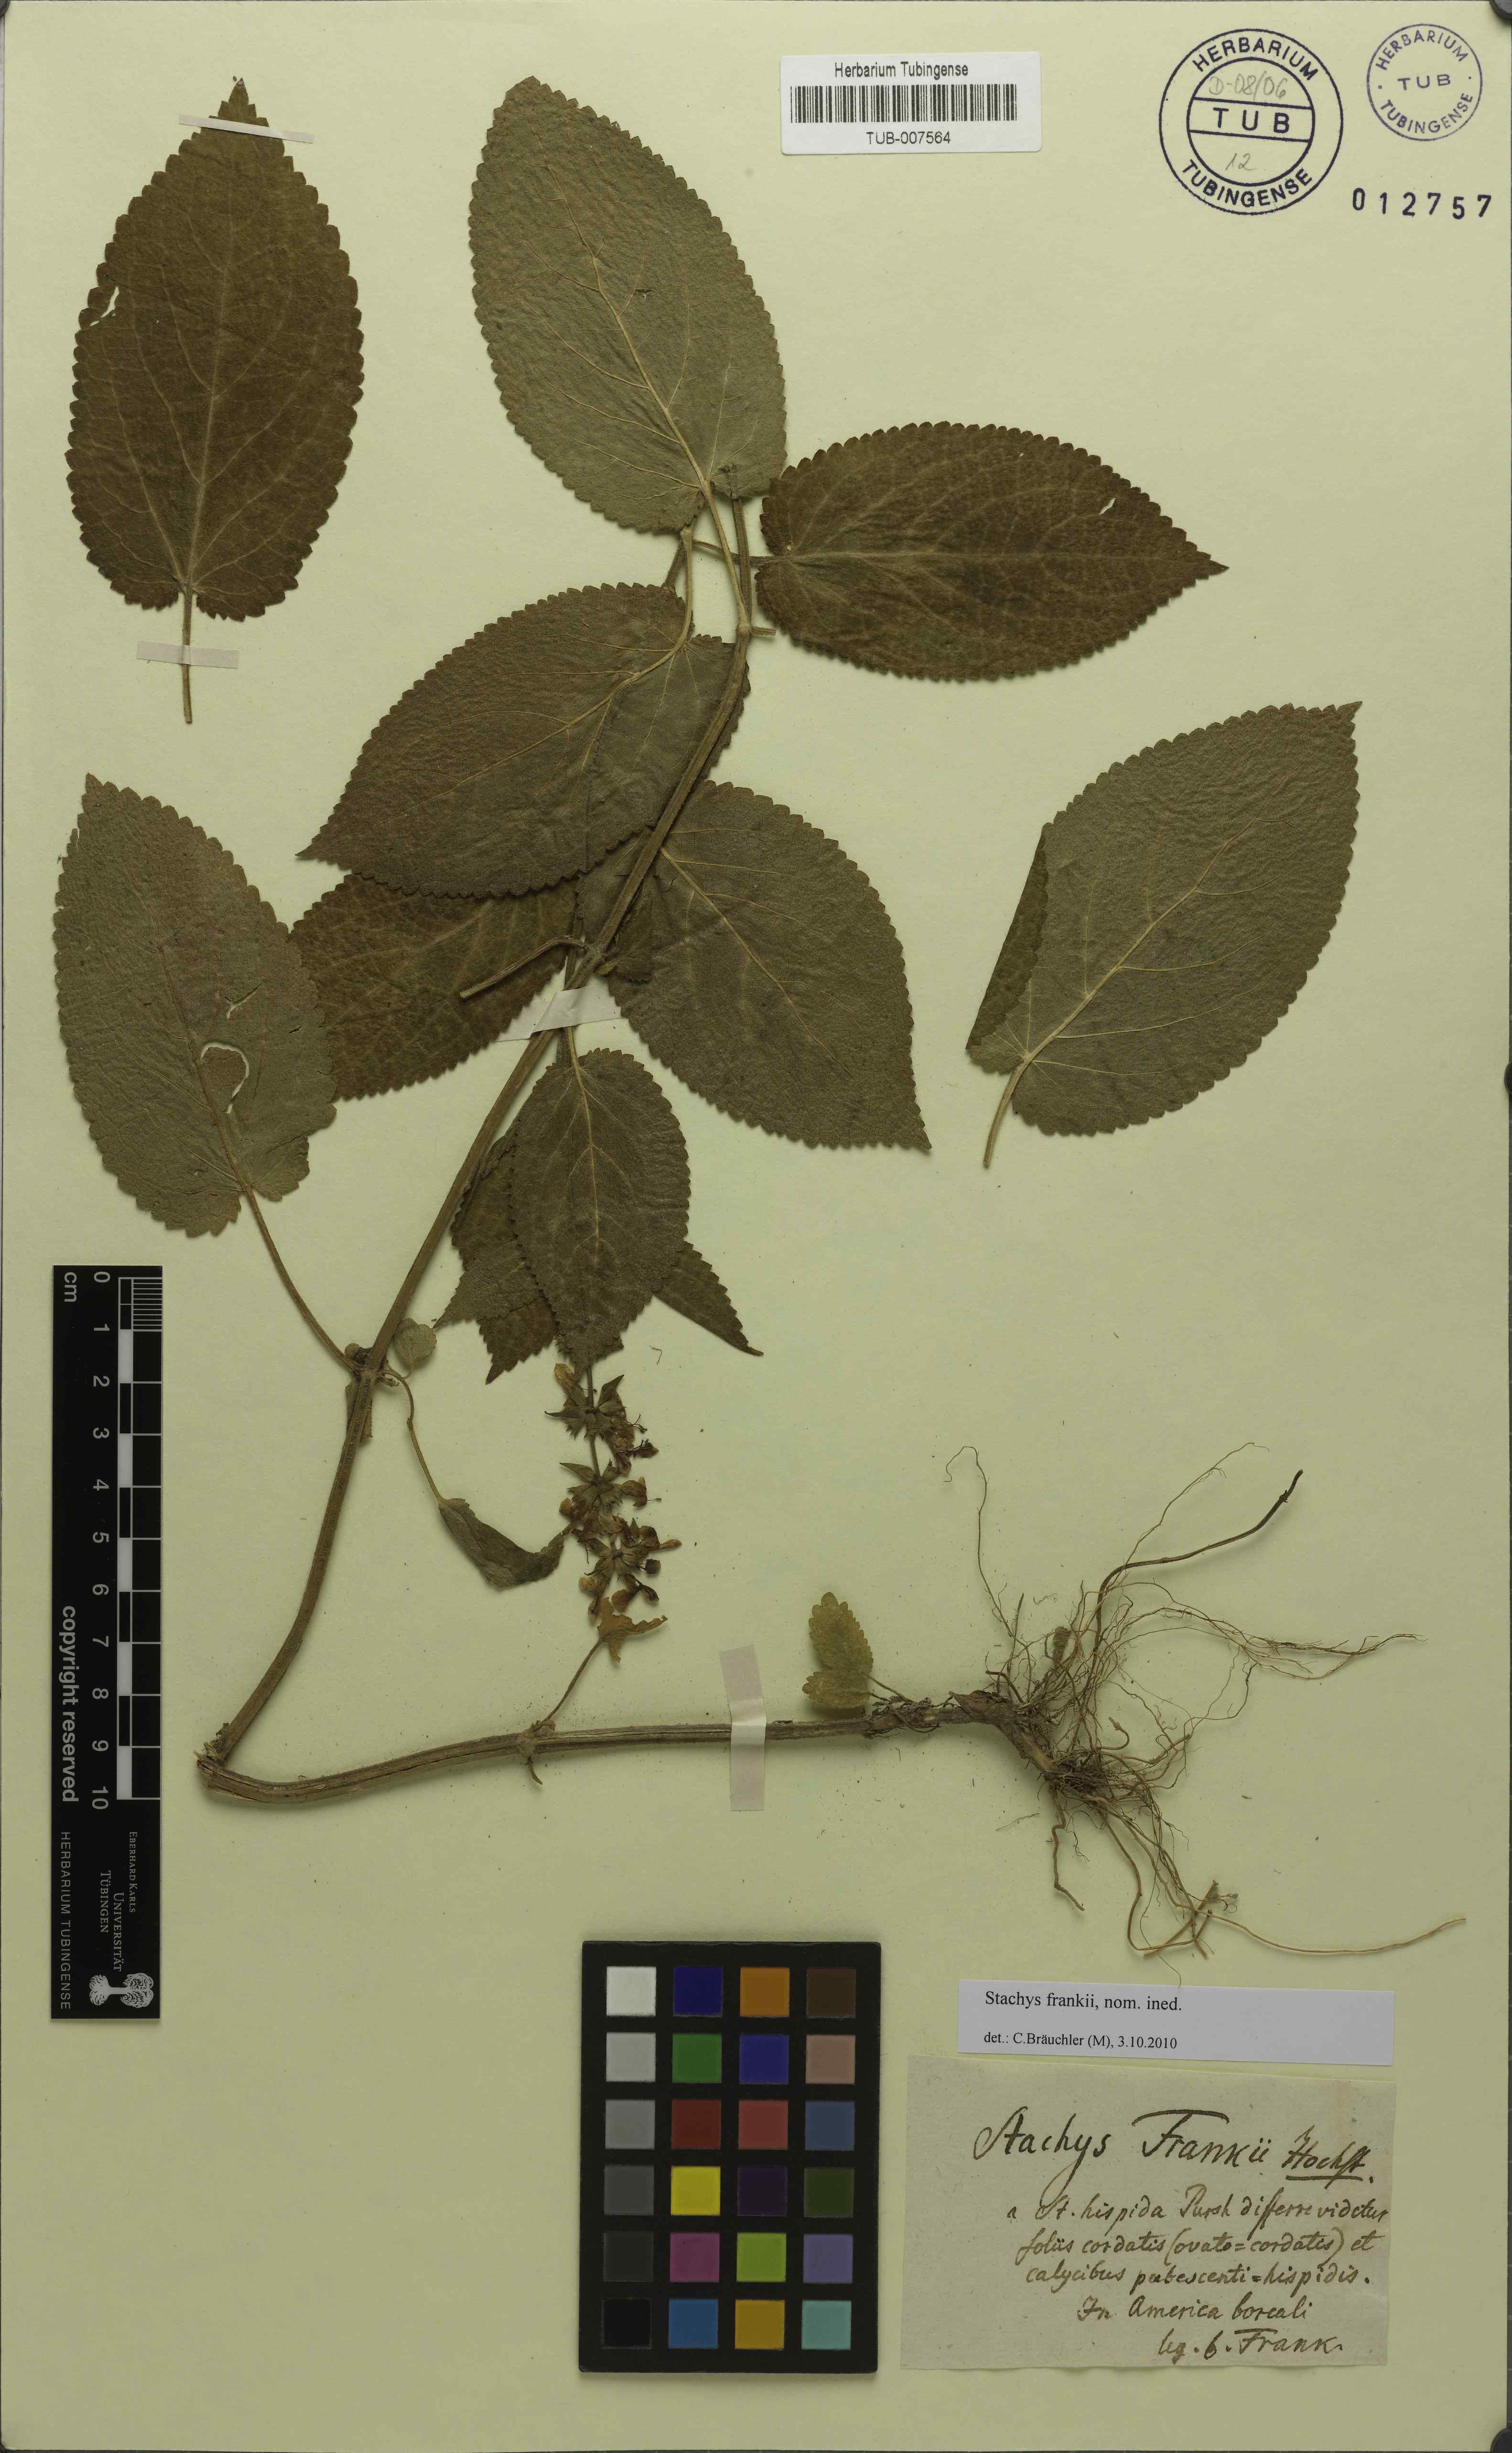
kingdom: Plantae
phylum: Tracheophyta
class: Magnoliopsida
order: Lamiales
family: Lamiaceae
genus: Stachys
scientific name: Stachys
